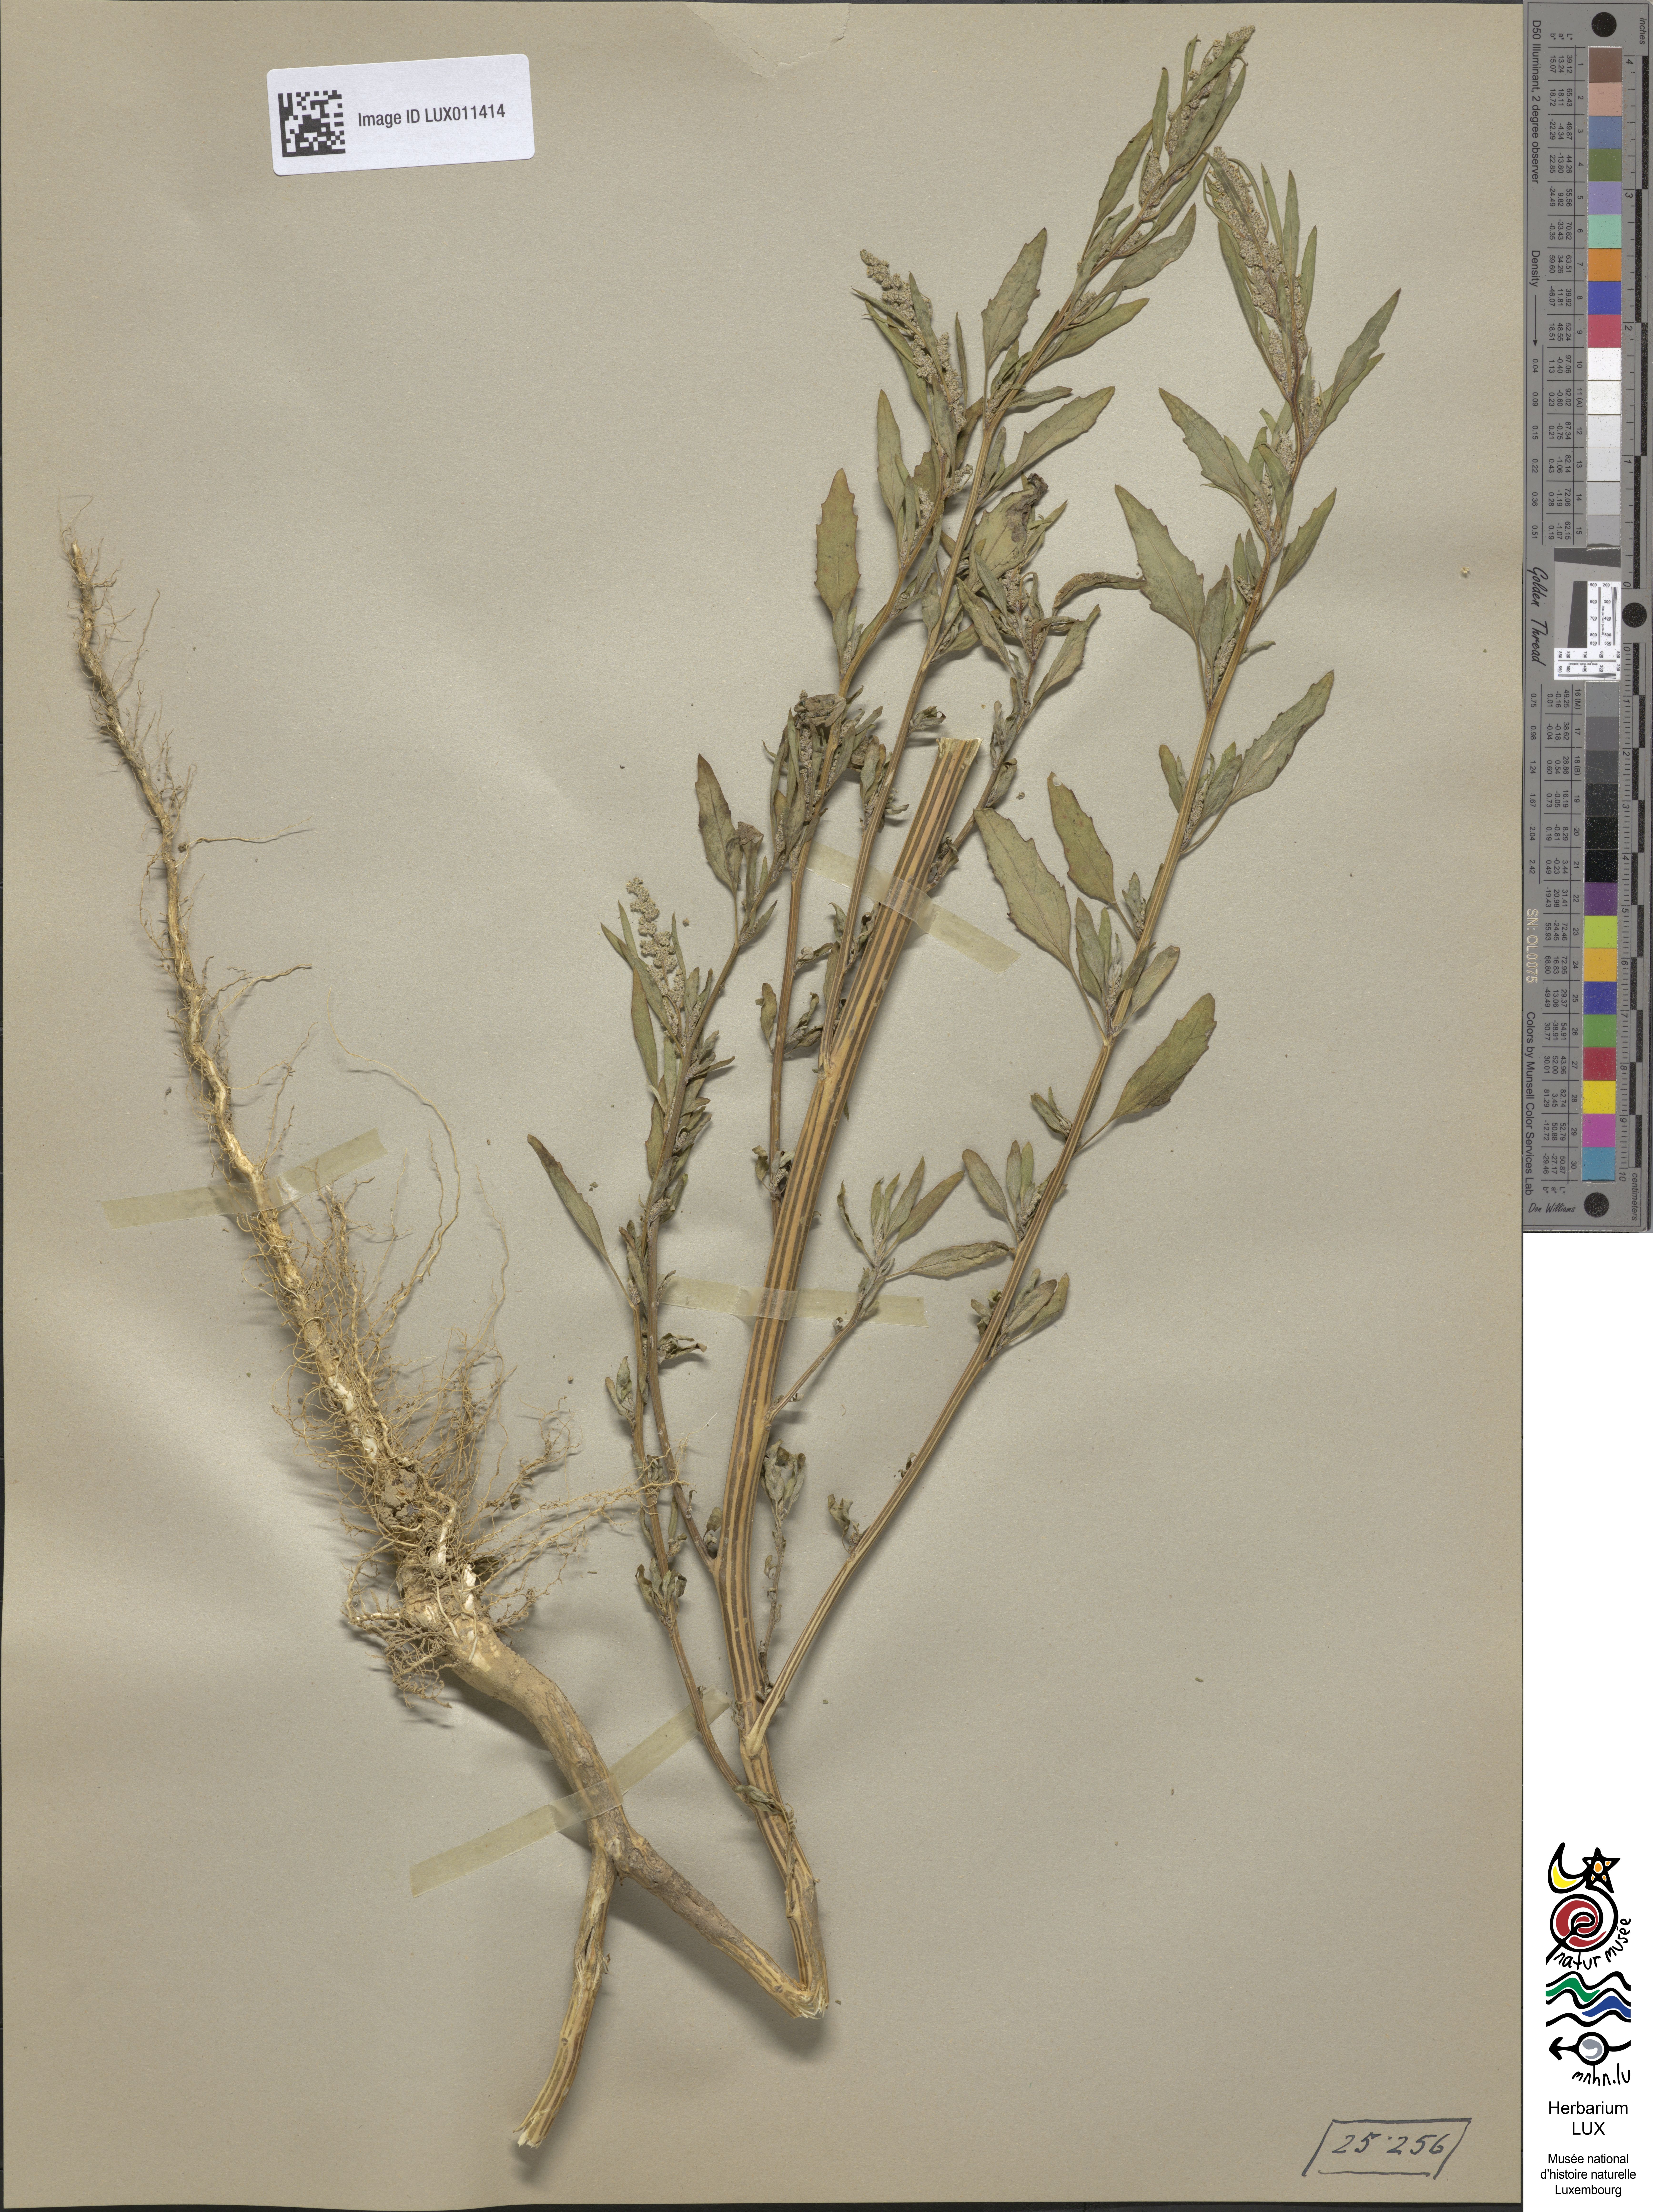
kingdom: Plantae
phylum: Tracheophyta
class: Magnoliopsida
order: Caryophyllales
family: Amaranthaceae
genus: Chenopodium
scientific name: Chenopodium album
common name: Fat-hen
